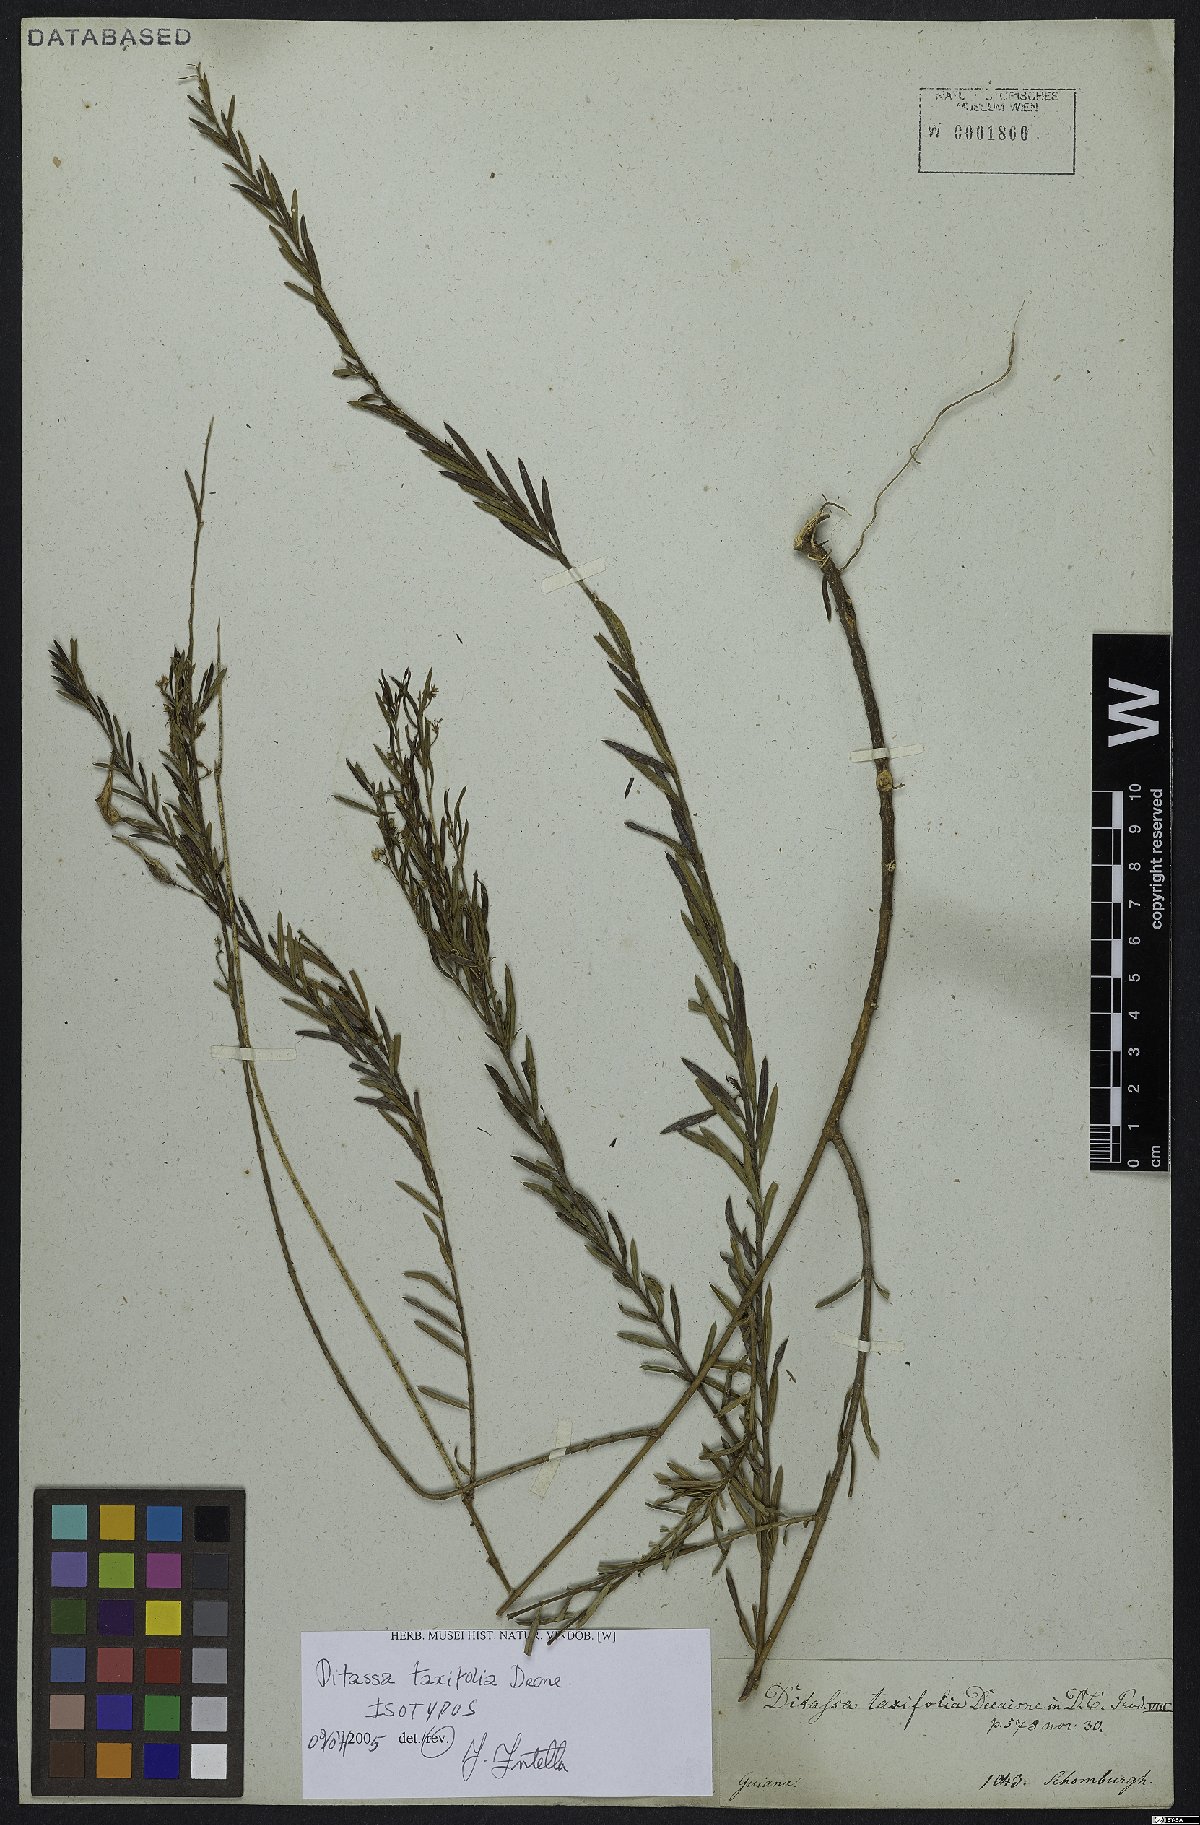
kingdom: Plantae
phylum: Tracheophyta
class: Magnoliopsida
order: Gentianales
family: Apocynaceae
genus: Ditassa
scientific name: Ditassa taxifolia
